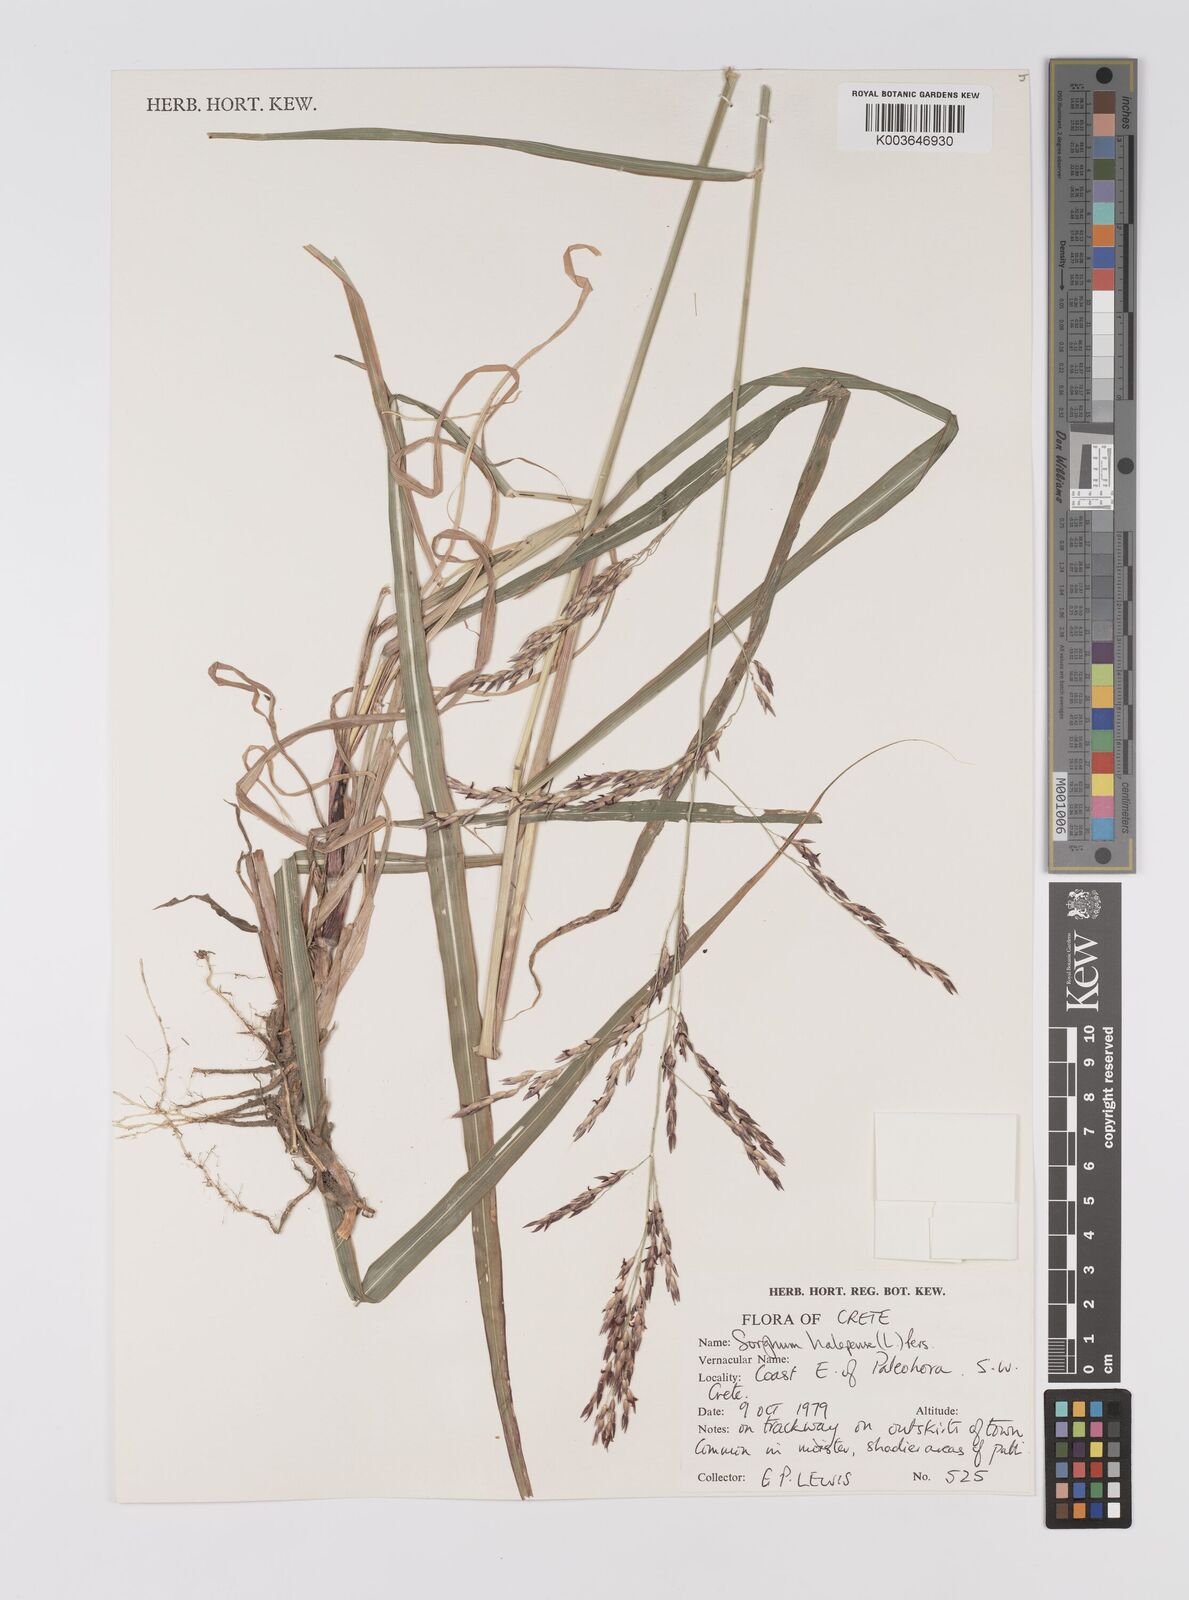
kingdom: Plantae
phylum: Tracheophyta
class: Liliopsida
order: Poales
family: Poaceae
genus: Sorghum
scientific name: Sorghum halepense
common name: Johnson-grass
